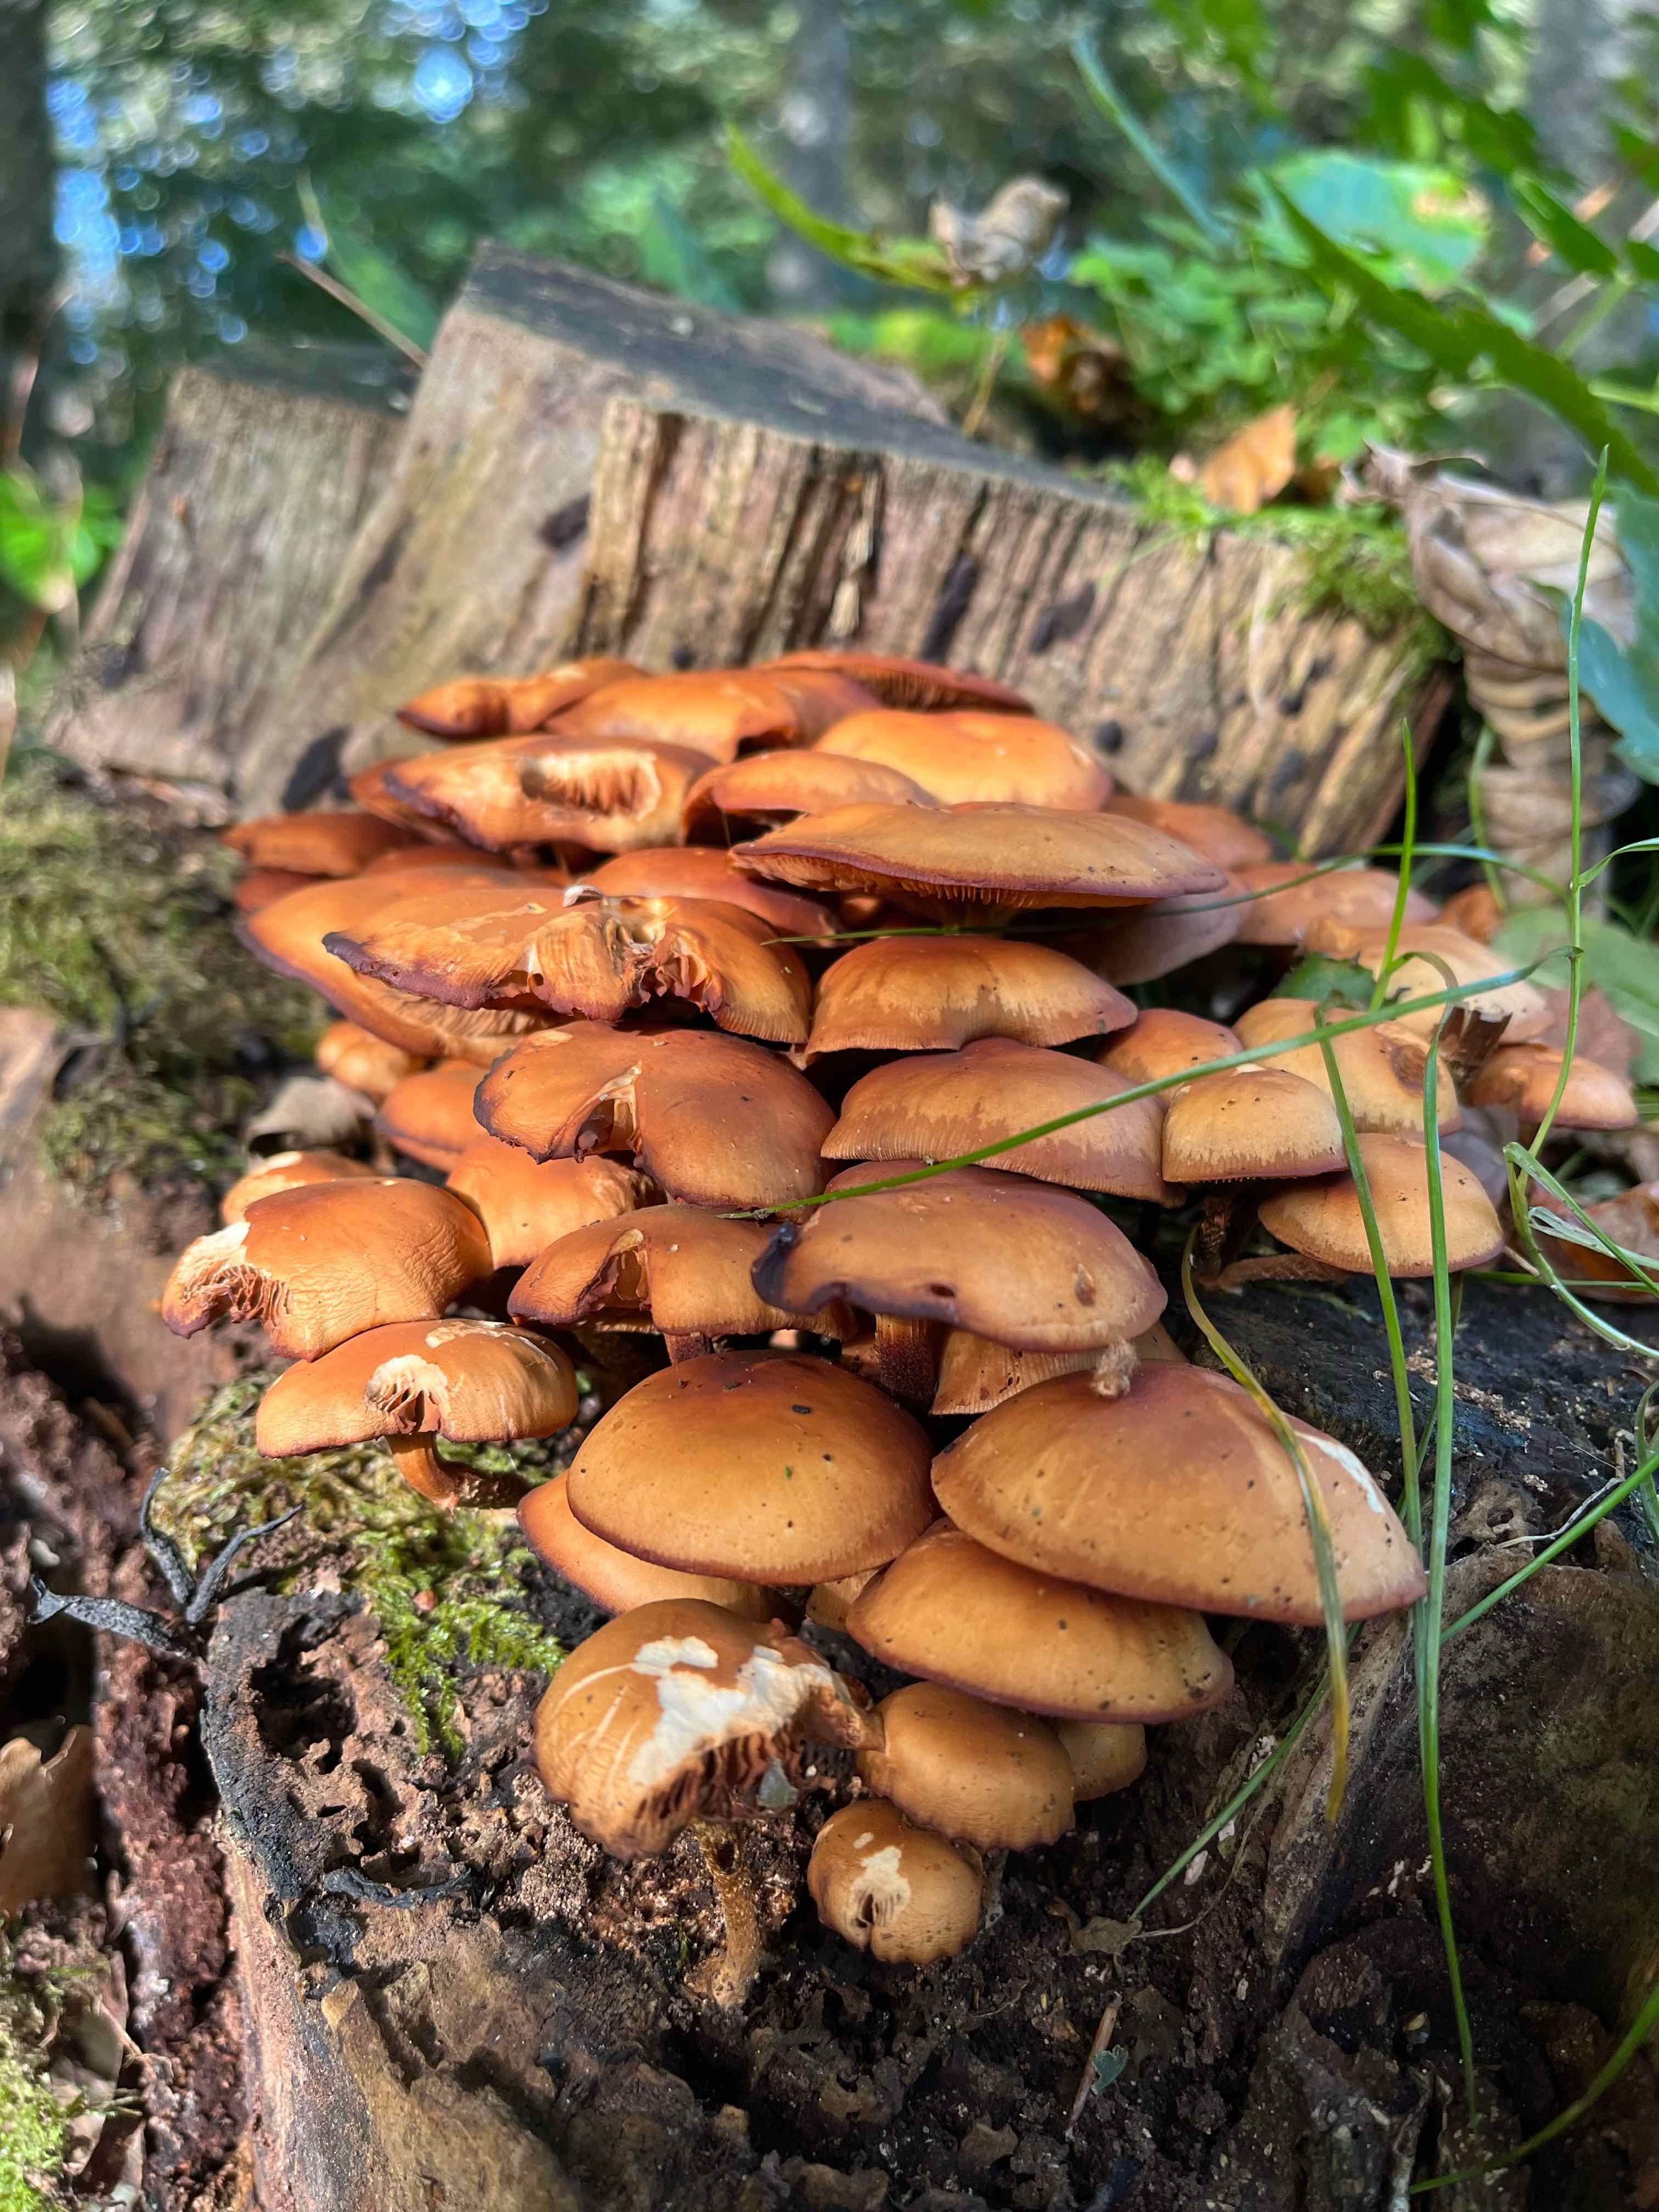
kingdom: Fungi
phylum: Basidiomycota
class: Agaricomycetes
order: Agaricales
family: Strophariaceae
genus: Kuehneromyces
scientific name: Kuehneromyces mutabilis
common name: foranderlig skælhat
